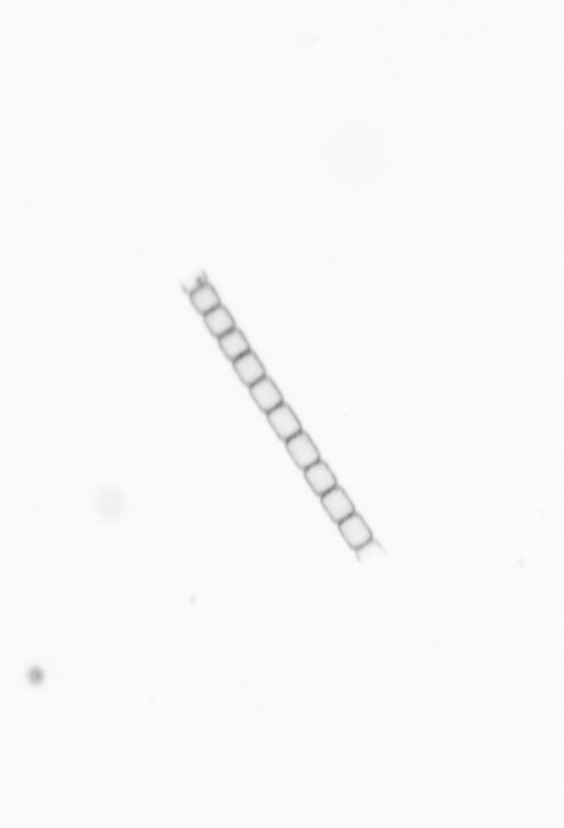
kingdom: Chromista
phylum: Ochrophyta
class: Bacillariophyceae
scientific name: Bacillariophyceae
